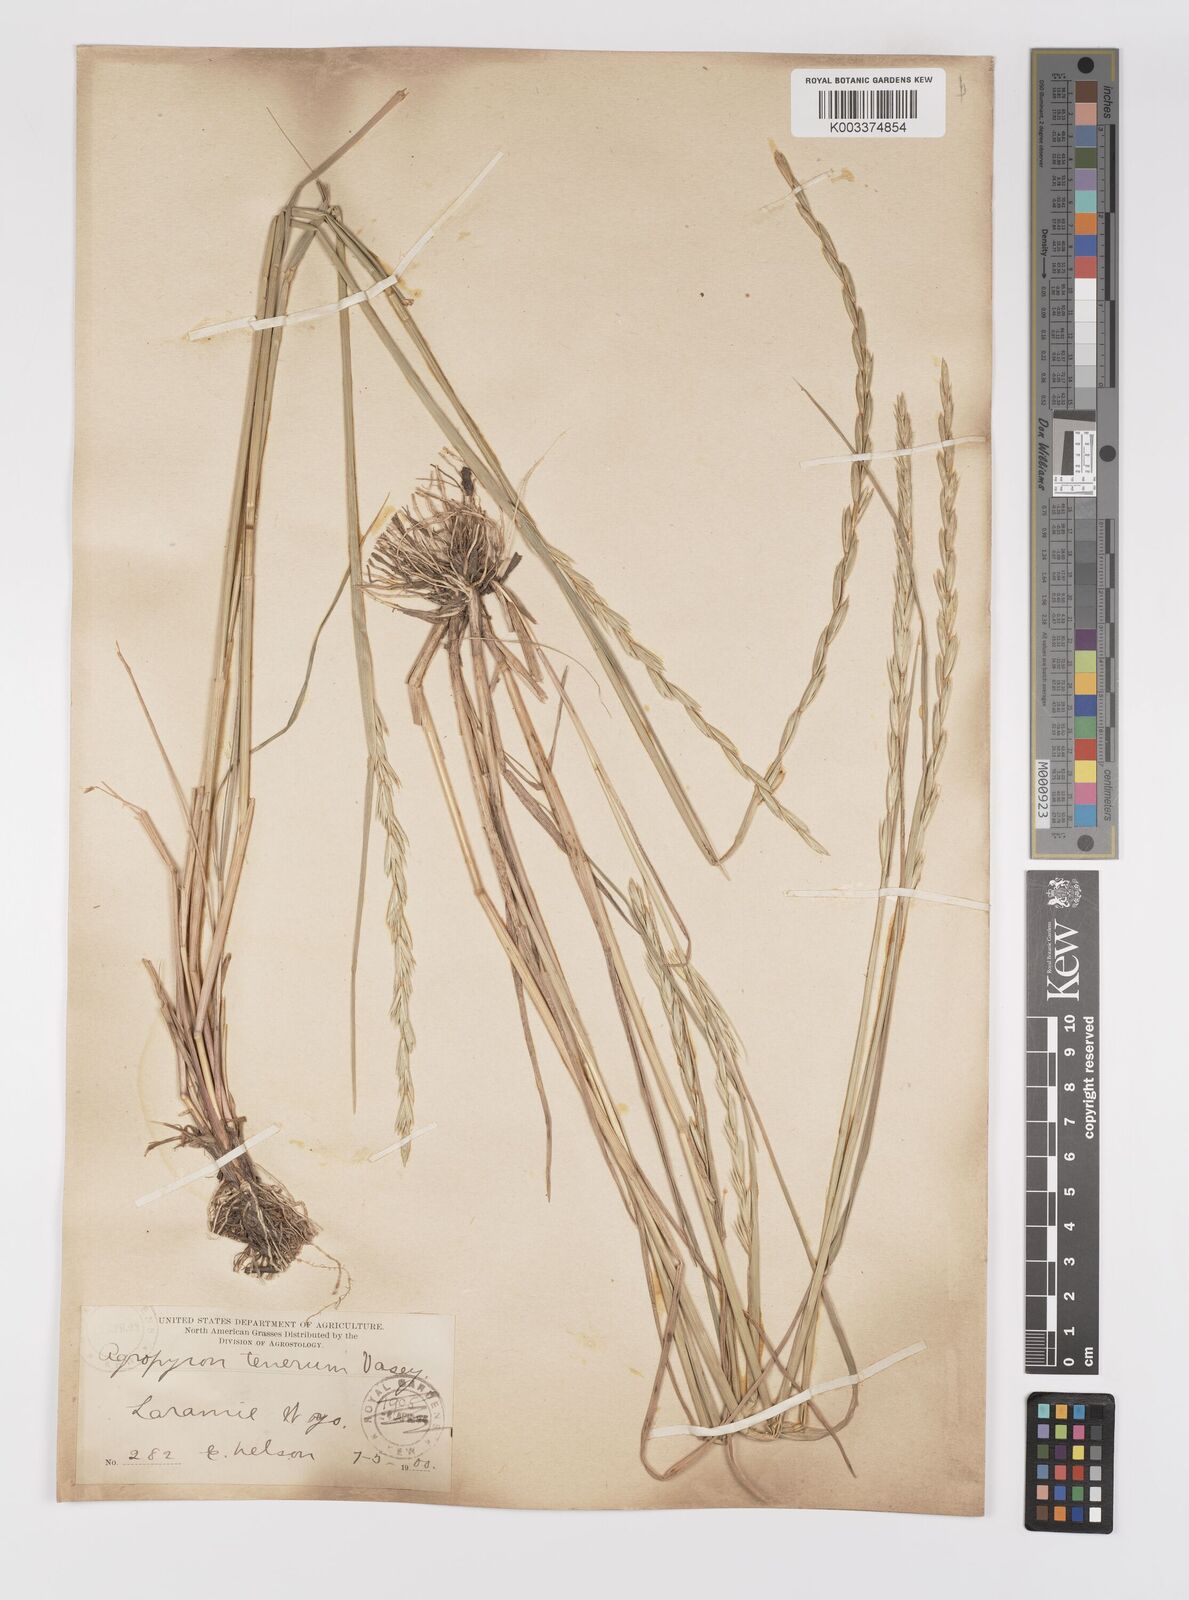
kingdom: Plantae
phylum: Tracheophyta
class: Liliopsida
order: Poales
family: Poaceae
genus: Elymus
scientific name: Elymus violaceus
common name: Arctic wheatgrass
